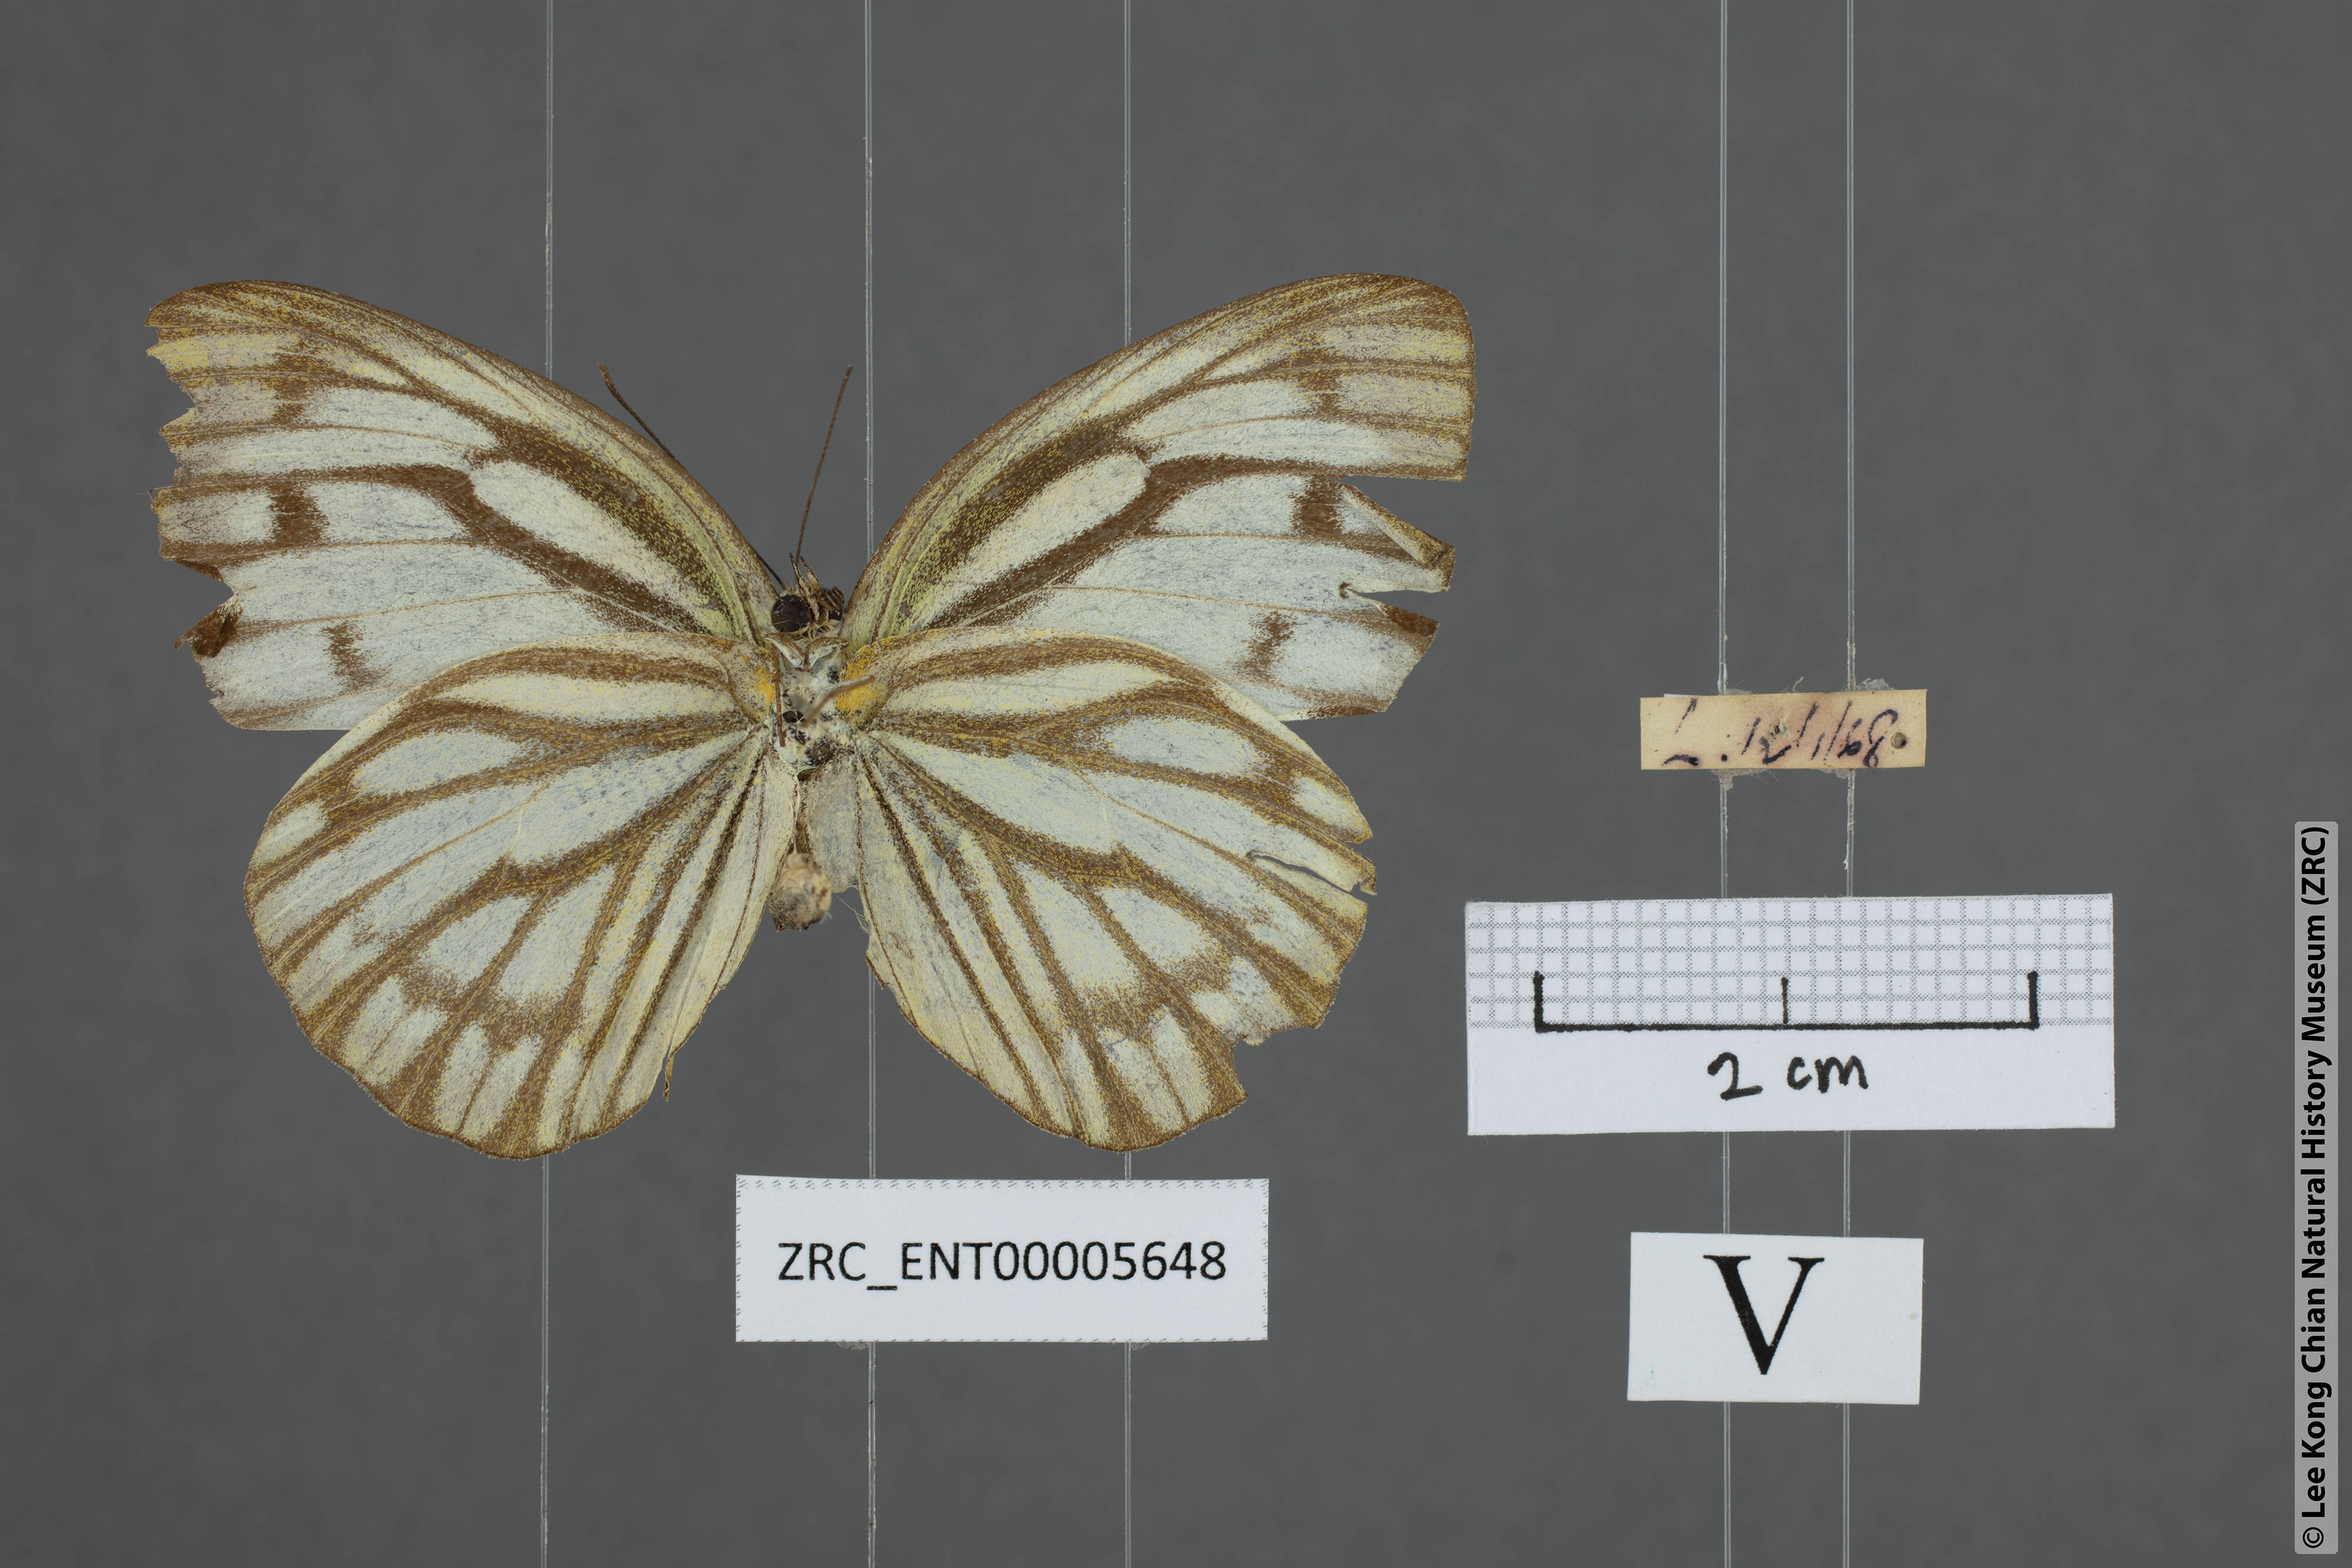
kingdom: Animalia
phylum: Arthropoda
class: Insecta
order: Lepidoptera
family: Pieridae
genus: Cepora
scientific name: Cepora nerissa
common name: Common gull
